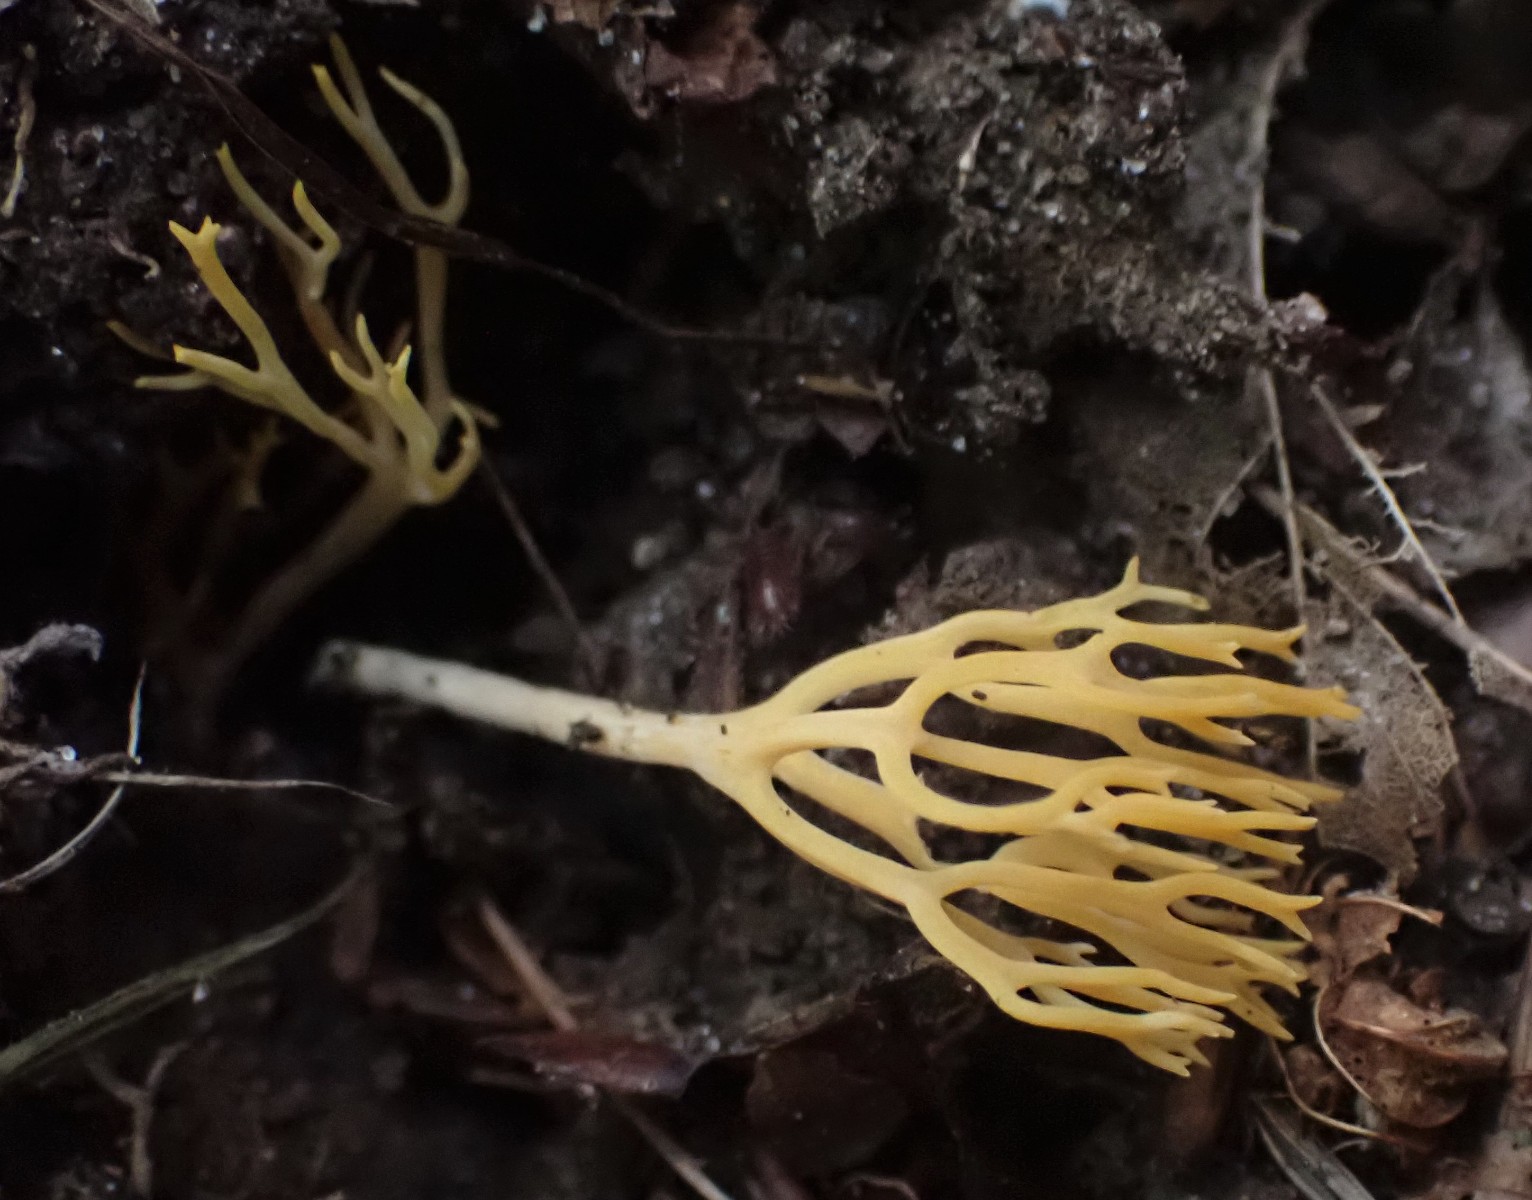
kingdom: Fungi
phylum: Basidiomycota
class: Agaricomycetes
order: Agaricales
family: Clavariaceae
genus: Clavulinopsis
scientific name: Clavulinopsis corniculata
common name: eng-køllesvamp
